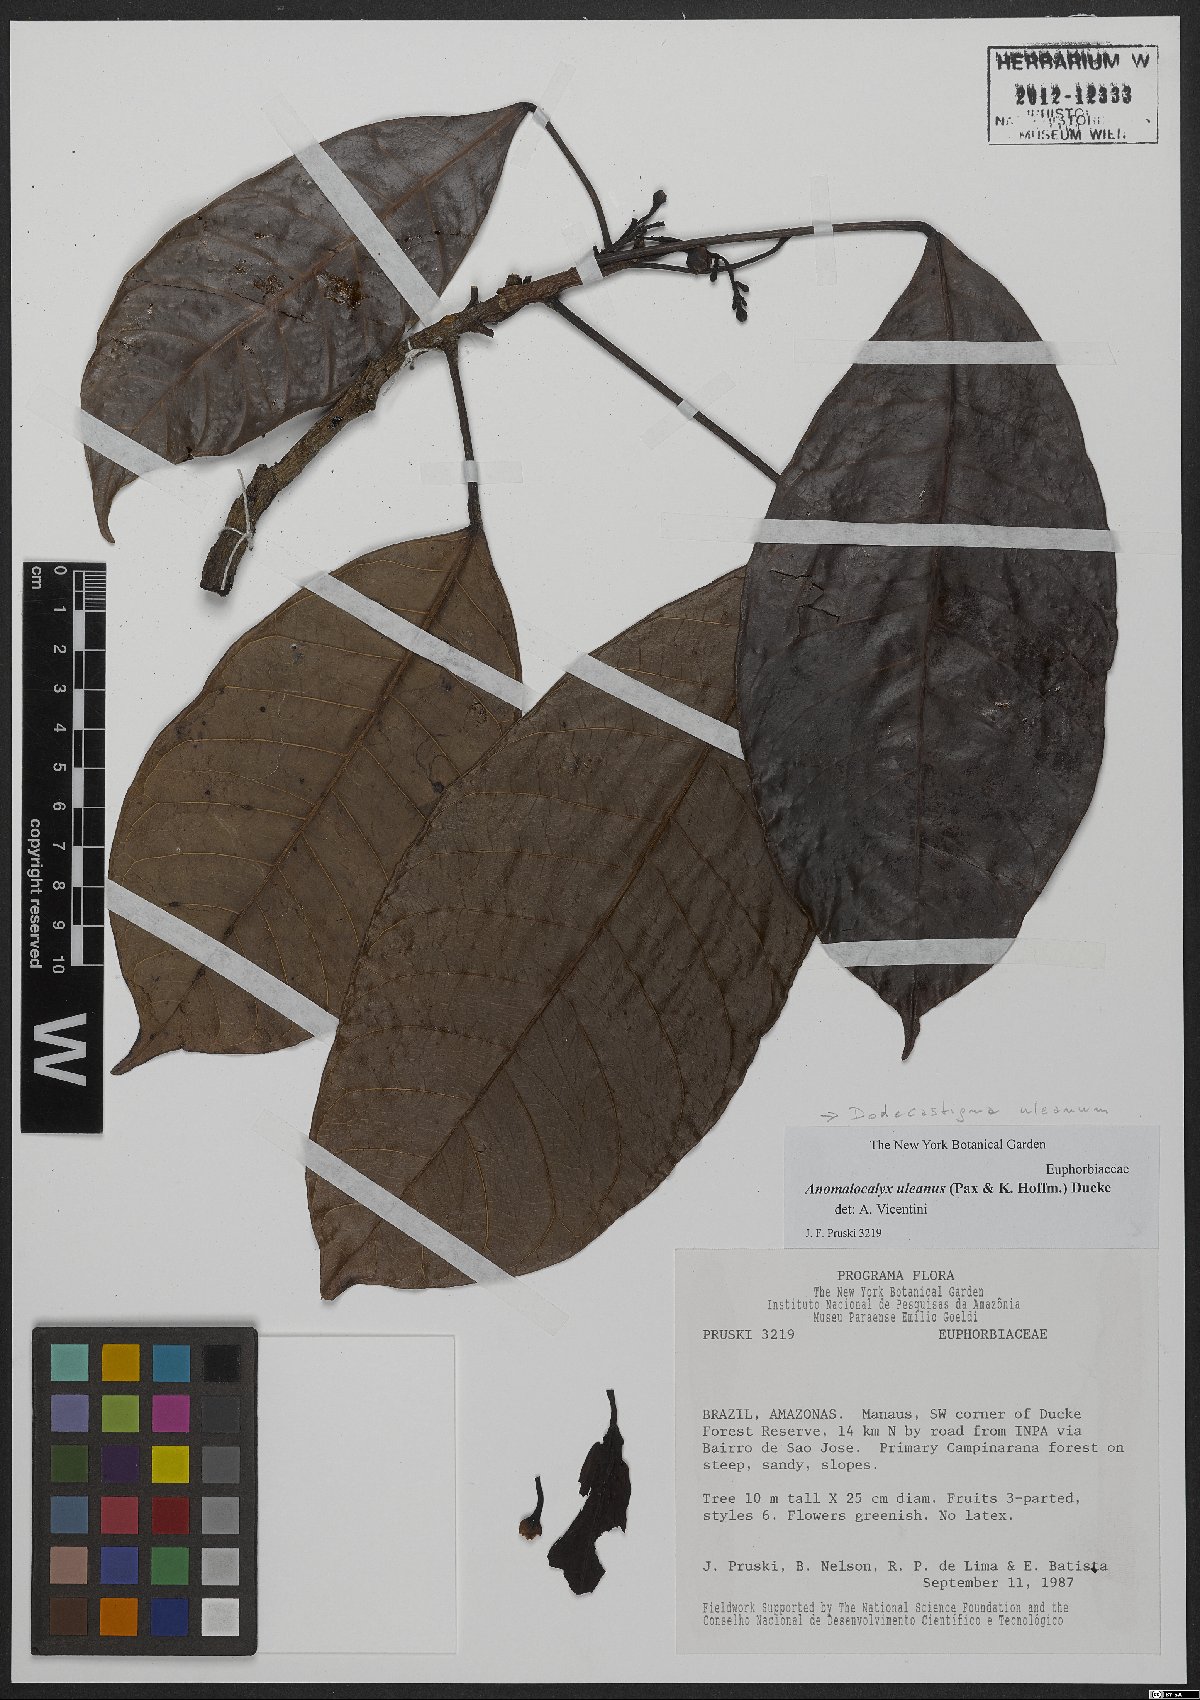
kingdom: Plantae
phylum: Tracheophyta
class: Magnoliopsida
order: Malpighiales
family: Euphorbiaceae
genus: Dodecastigma
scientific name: Dodecastigma uleanum
